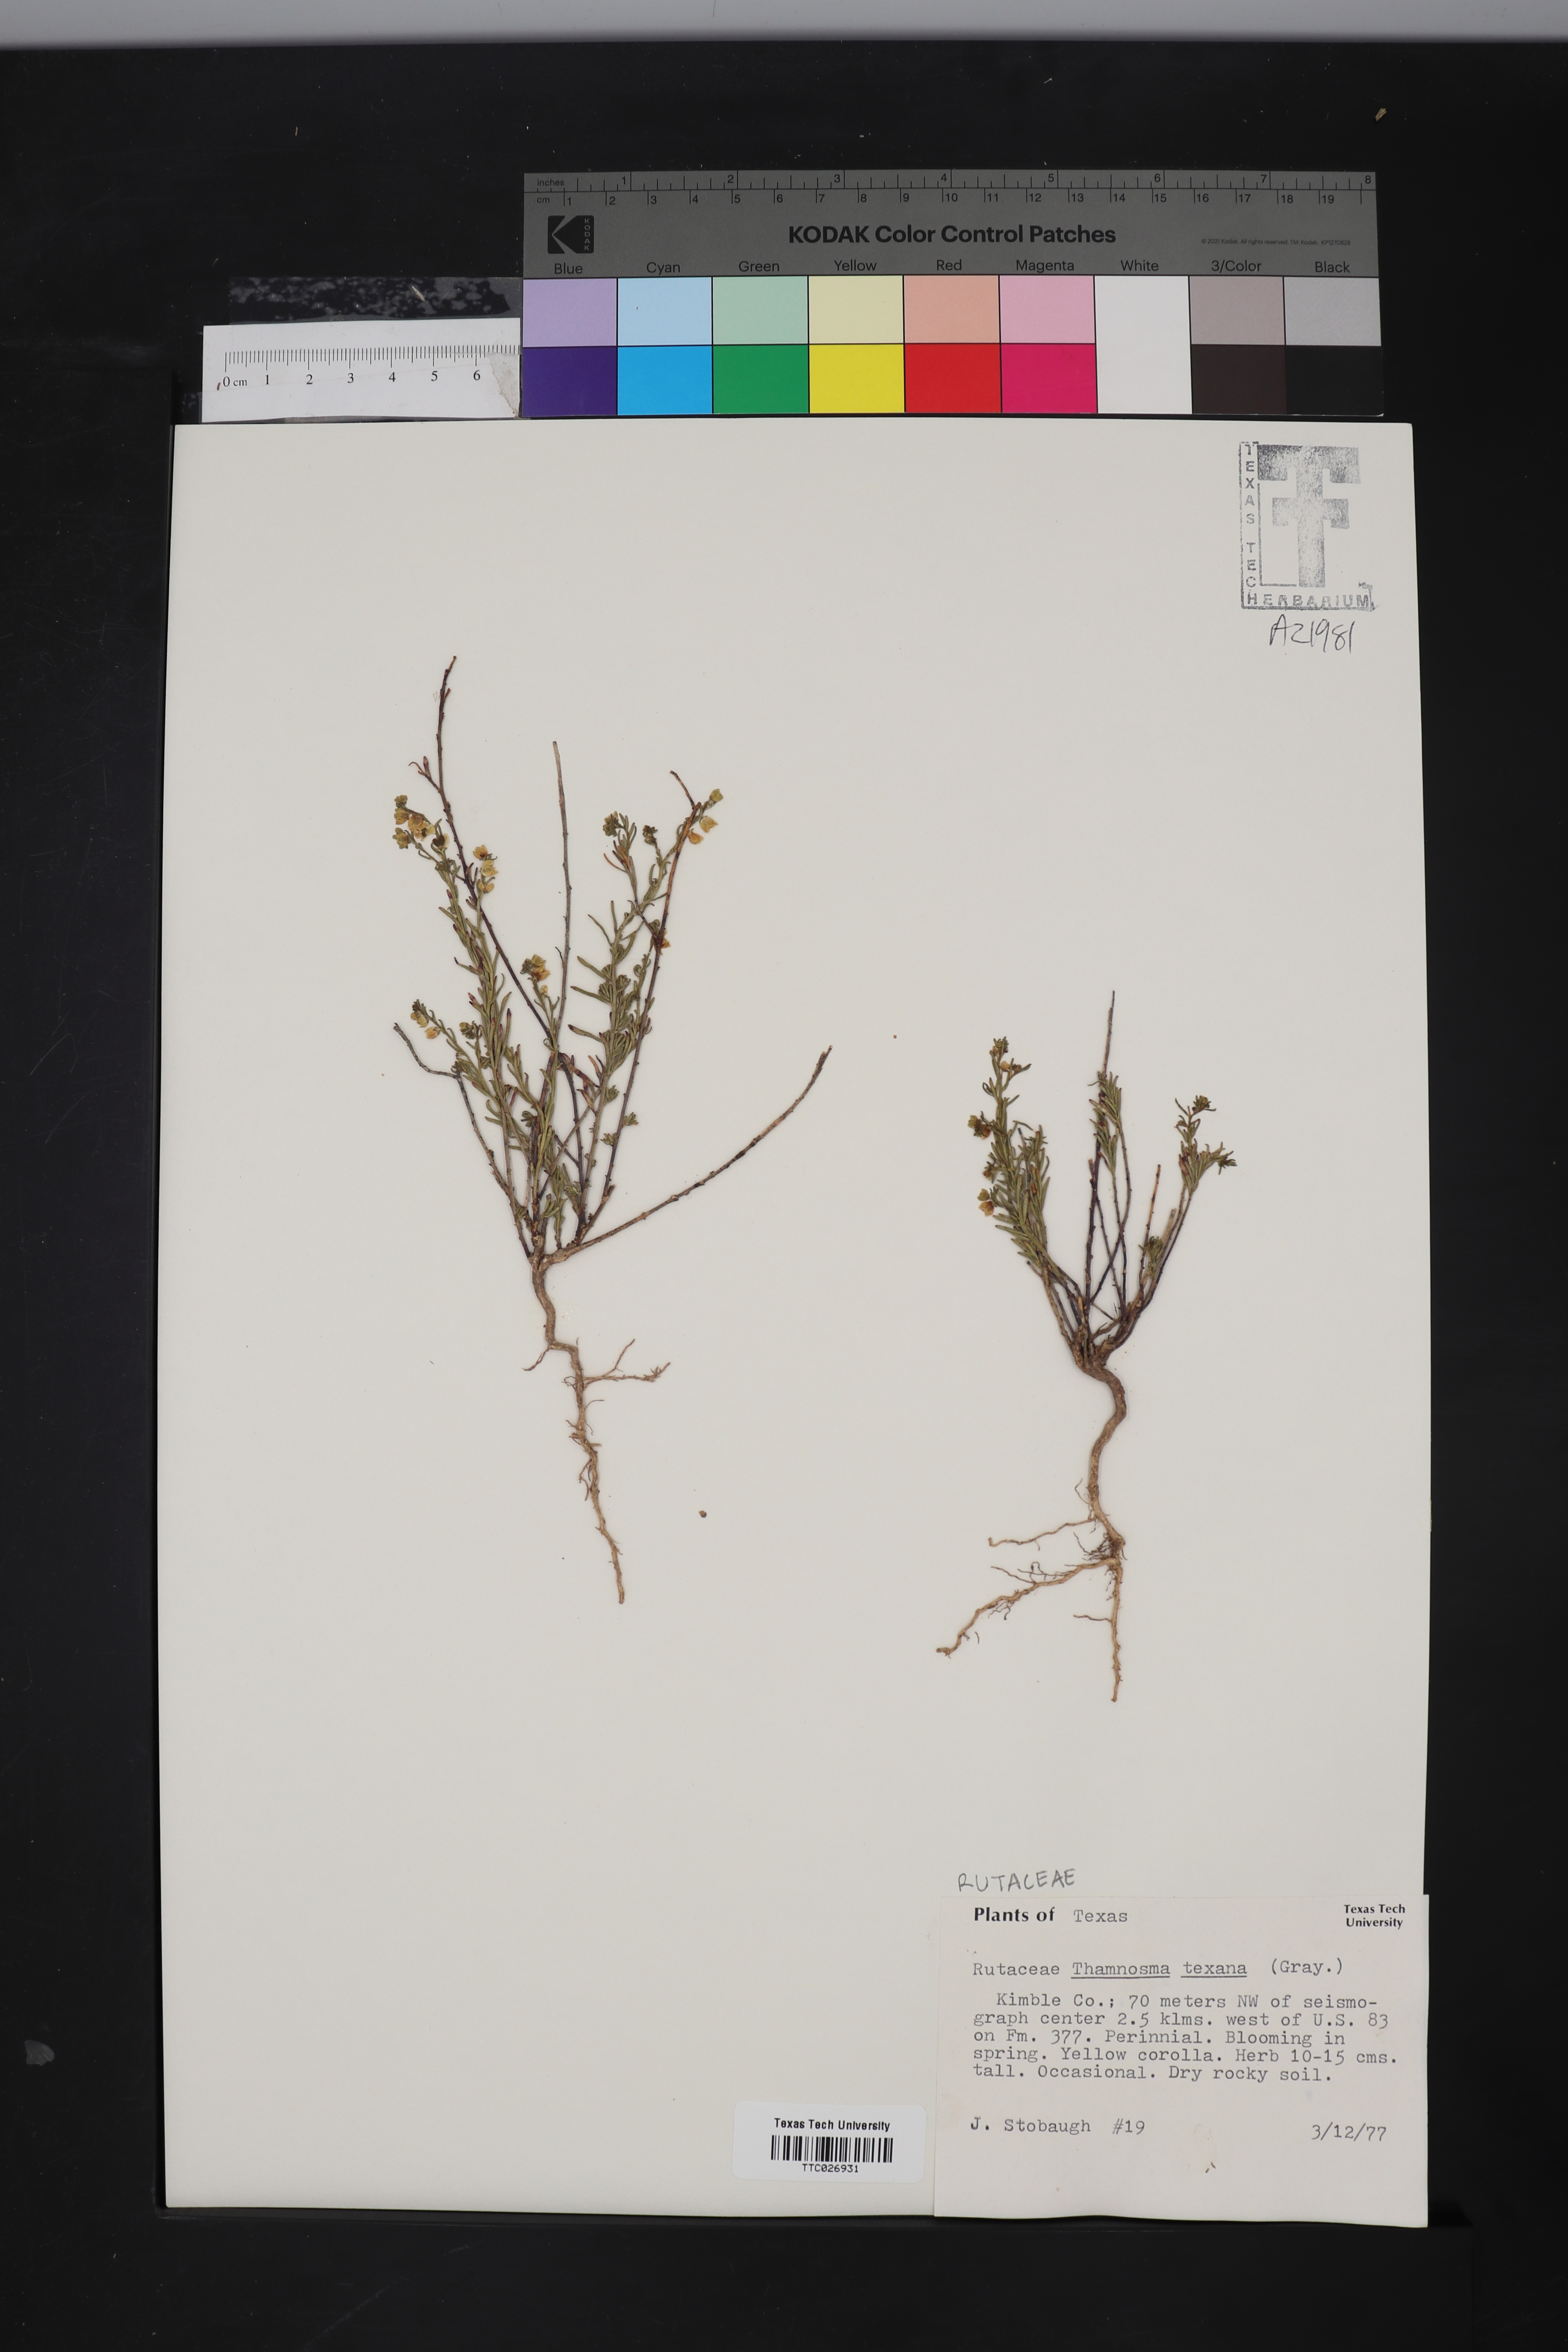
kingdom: Plantae
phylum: Tracheophyta
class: Magnoliopsida
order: Sapindales
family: Rutaceae
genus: Thamnosma
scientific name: Thamnosma texana
